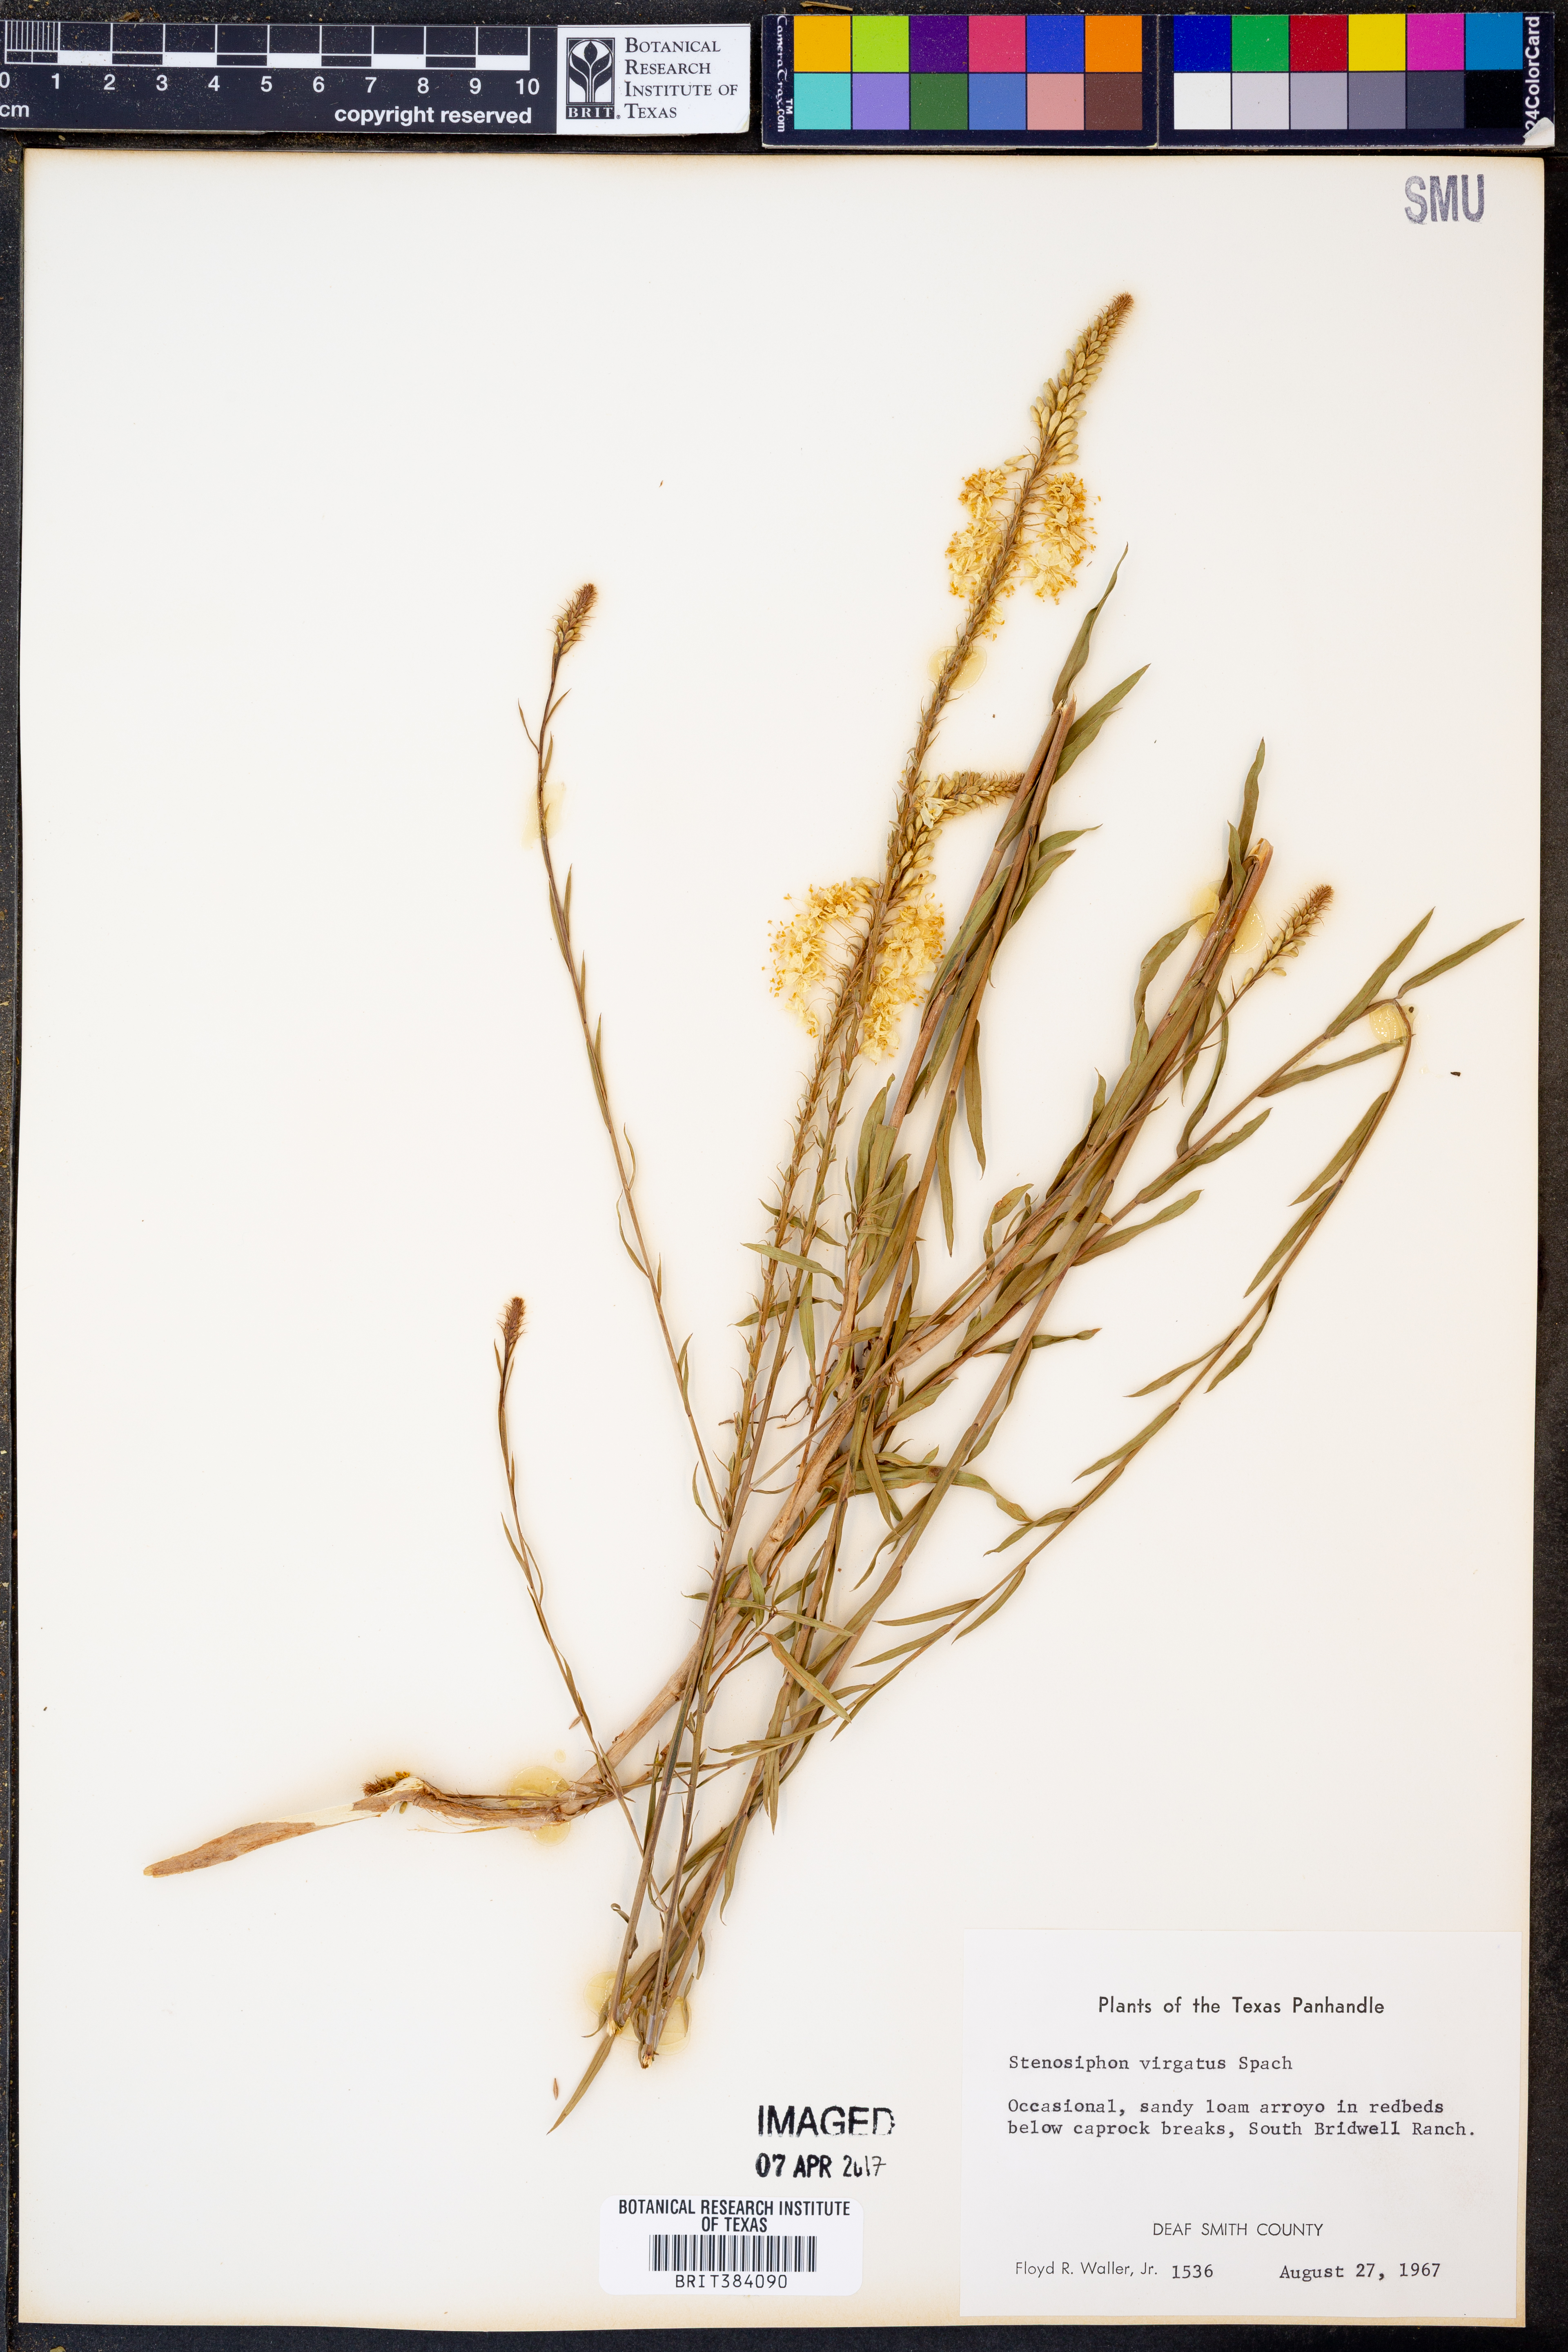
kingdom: Plantae
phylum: Tracheophyta
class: Magnoliopsida
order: Myrtales
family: Onagraceae
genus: Oenothera
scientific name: Oenothera glaucifolia
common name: False gaura
